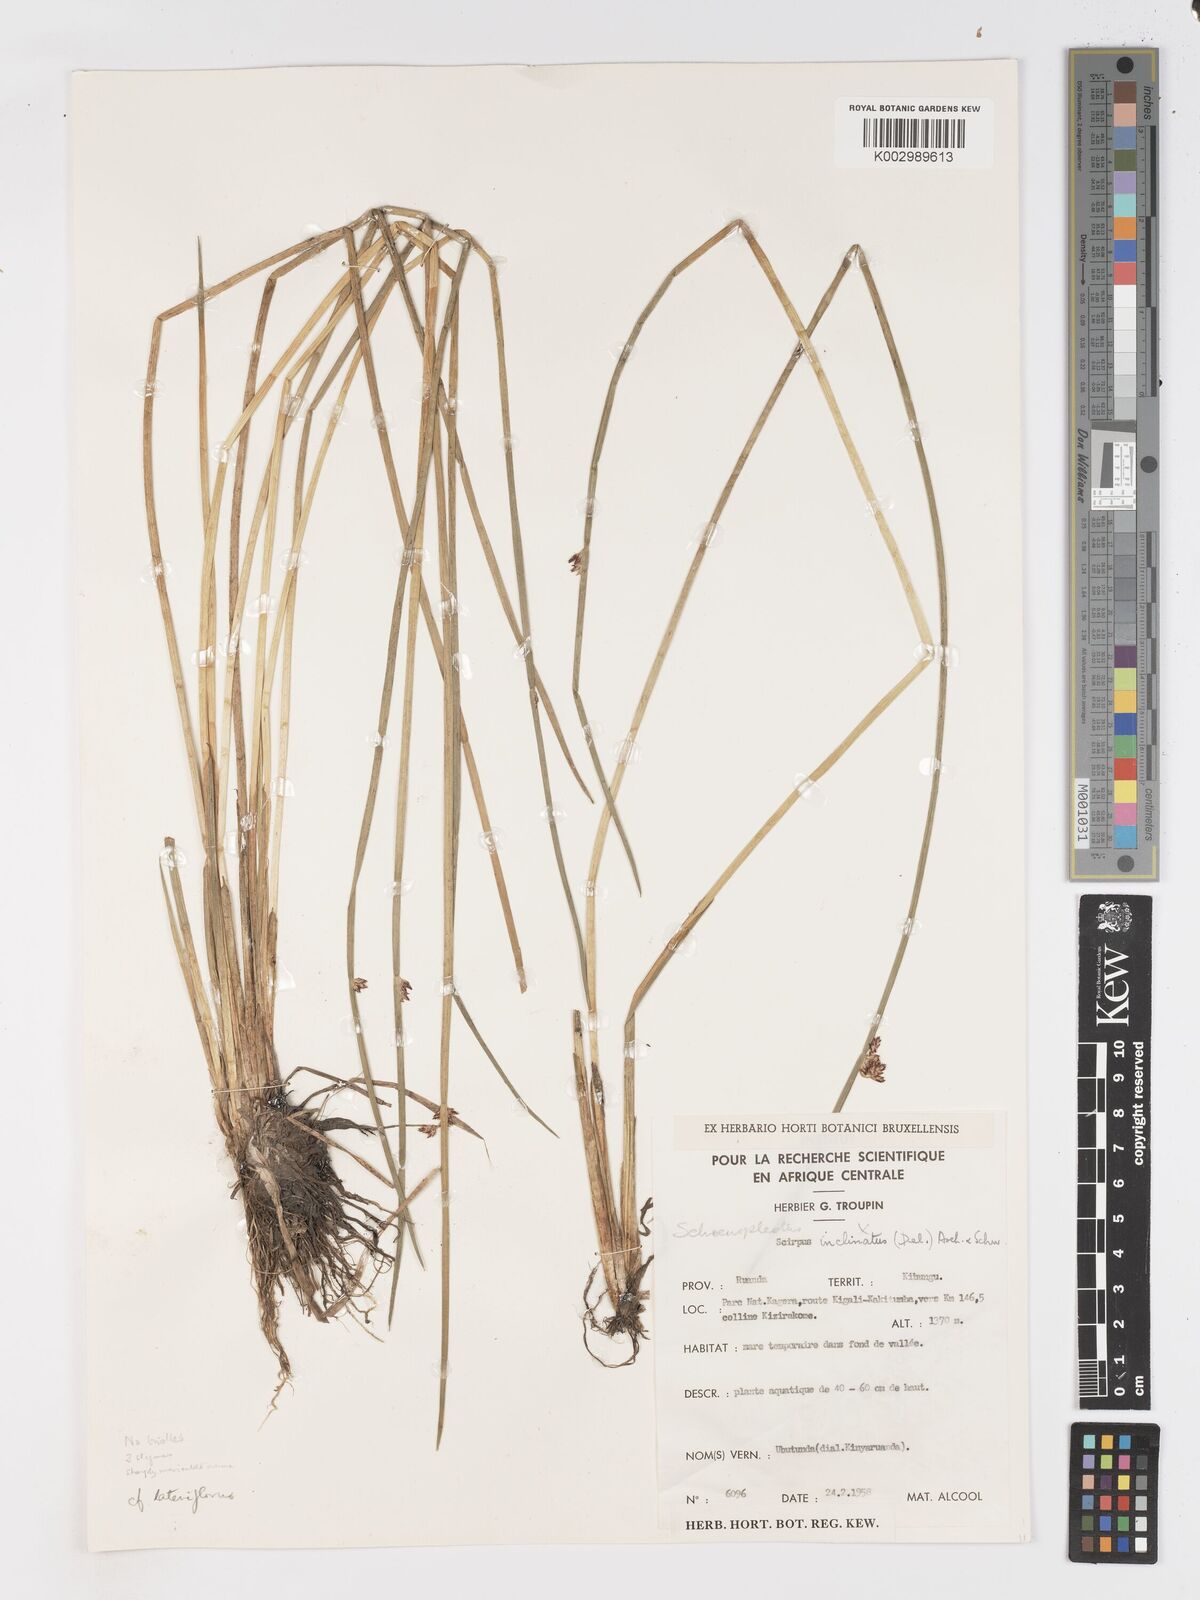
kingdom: Plantae
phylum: Tracheophyta
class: Liliopsida
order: Poales
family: Cyperaceae
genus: Schoenoplectus
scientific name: Schoenoplectus
